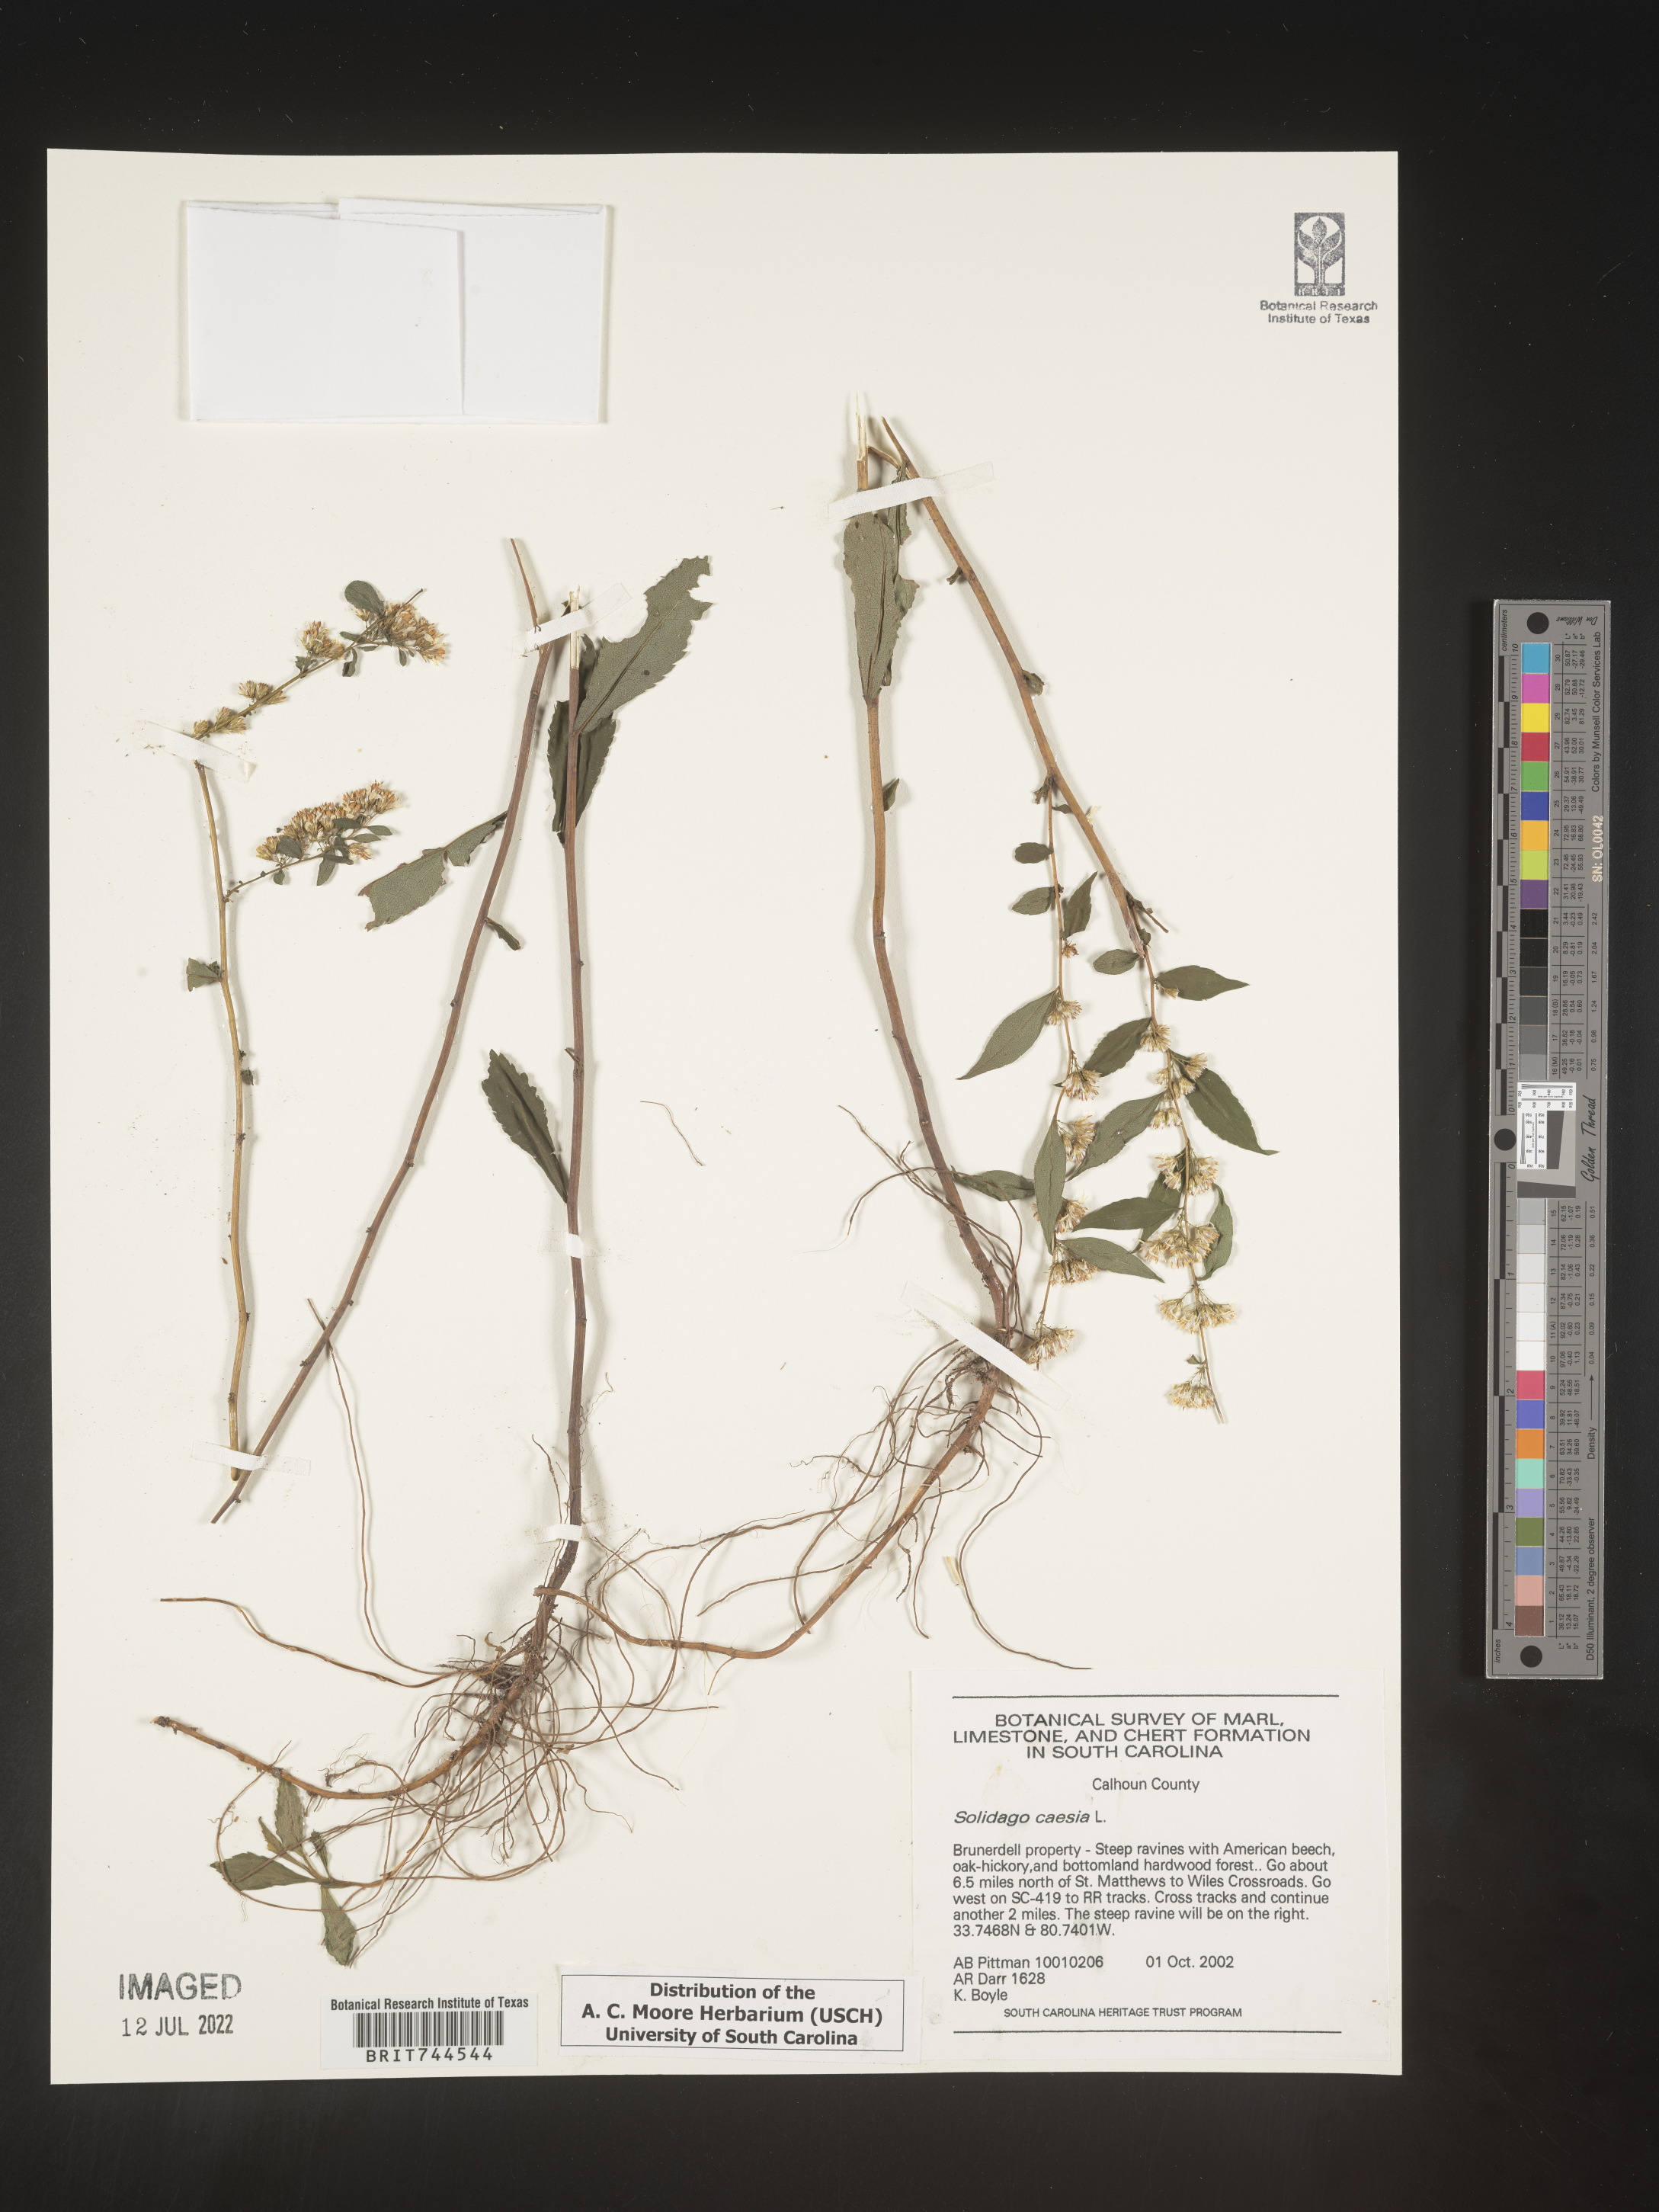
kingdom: Plantae
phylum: Tracheophyta
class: Magnoliopsida
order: Asterales
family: Asteraceae
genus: Solidago
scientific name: Solidago caesia
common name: Woodland goldenrod
